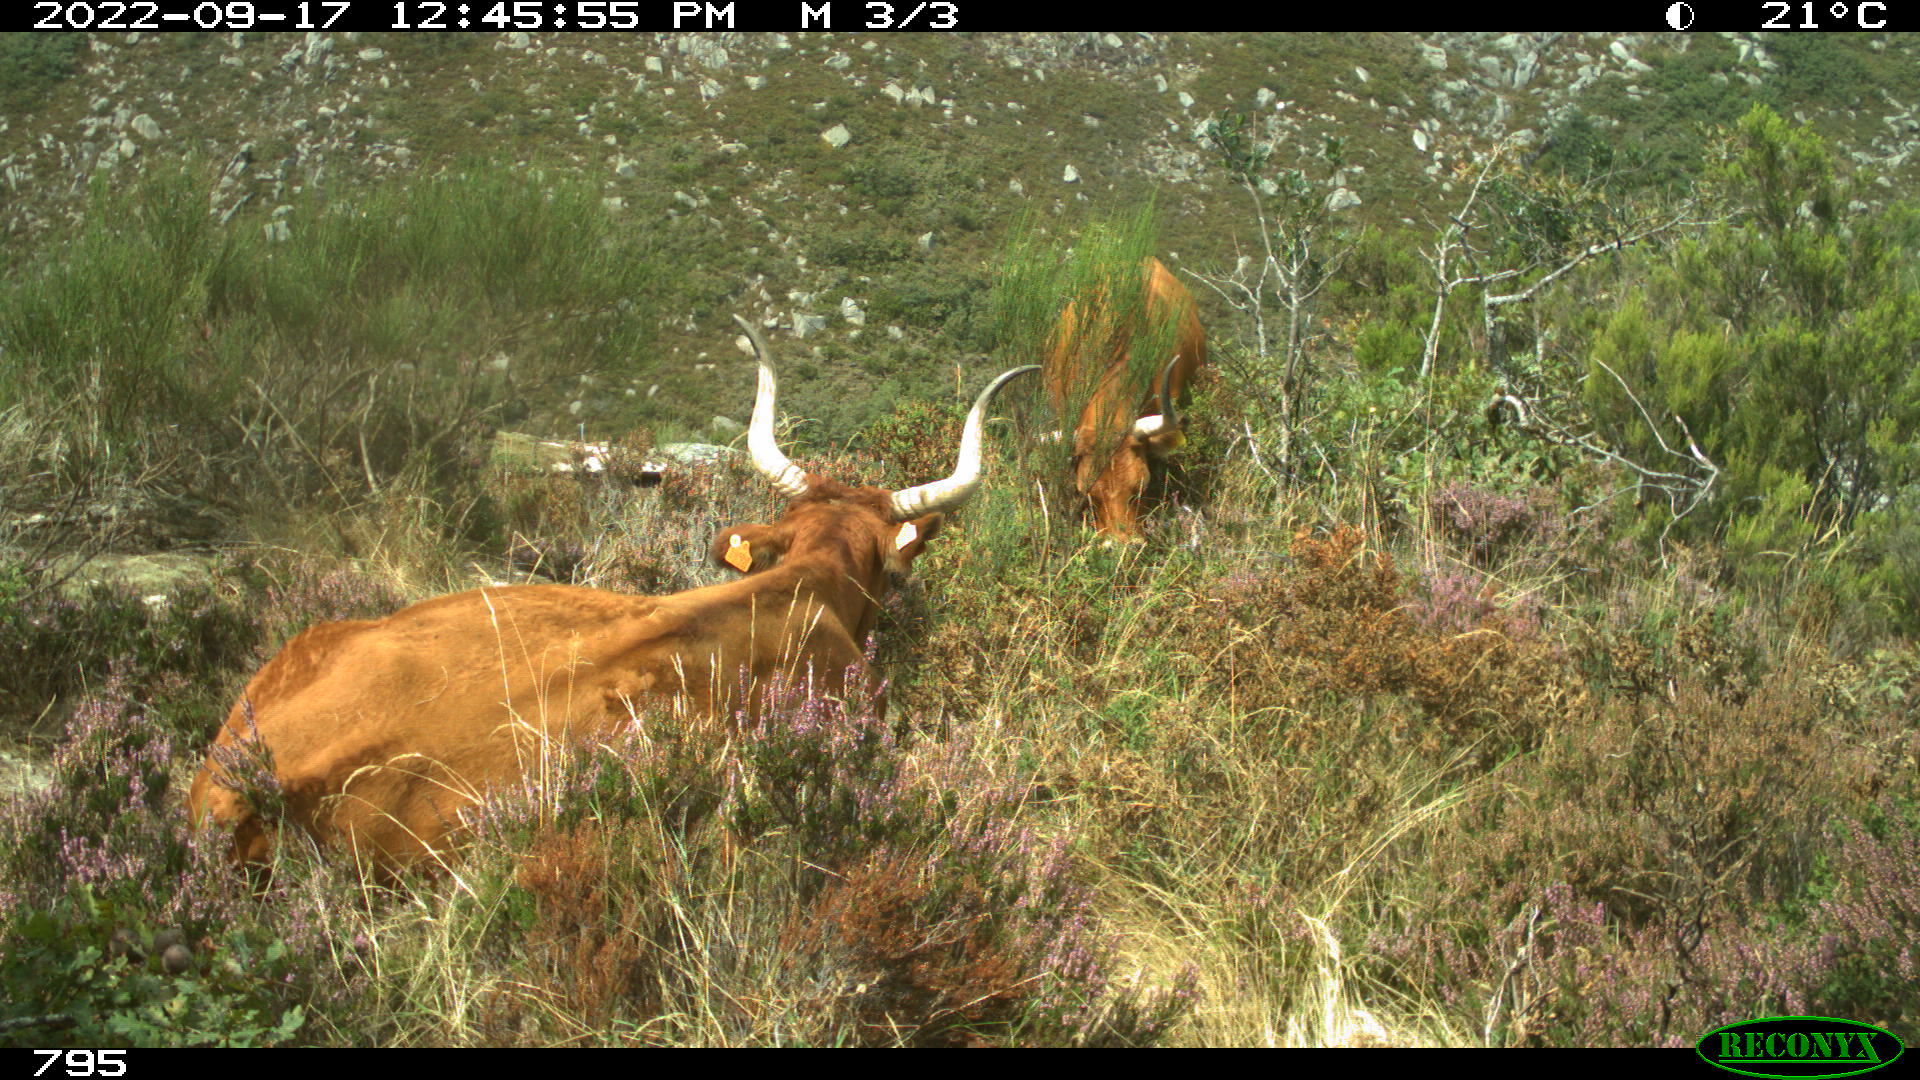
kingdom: Animalia
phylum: Chordata
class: Mammalia
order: Artiodactyla
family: Bovidae
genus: Bos
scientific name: Bos taurus
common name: Domesticated cattle
